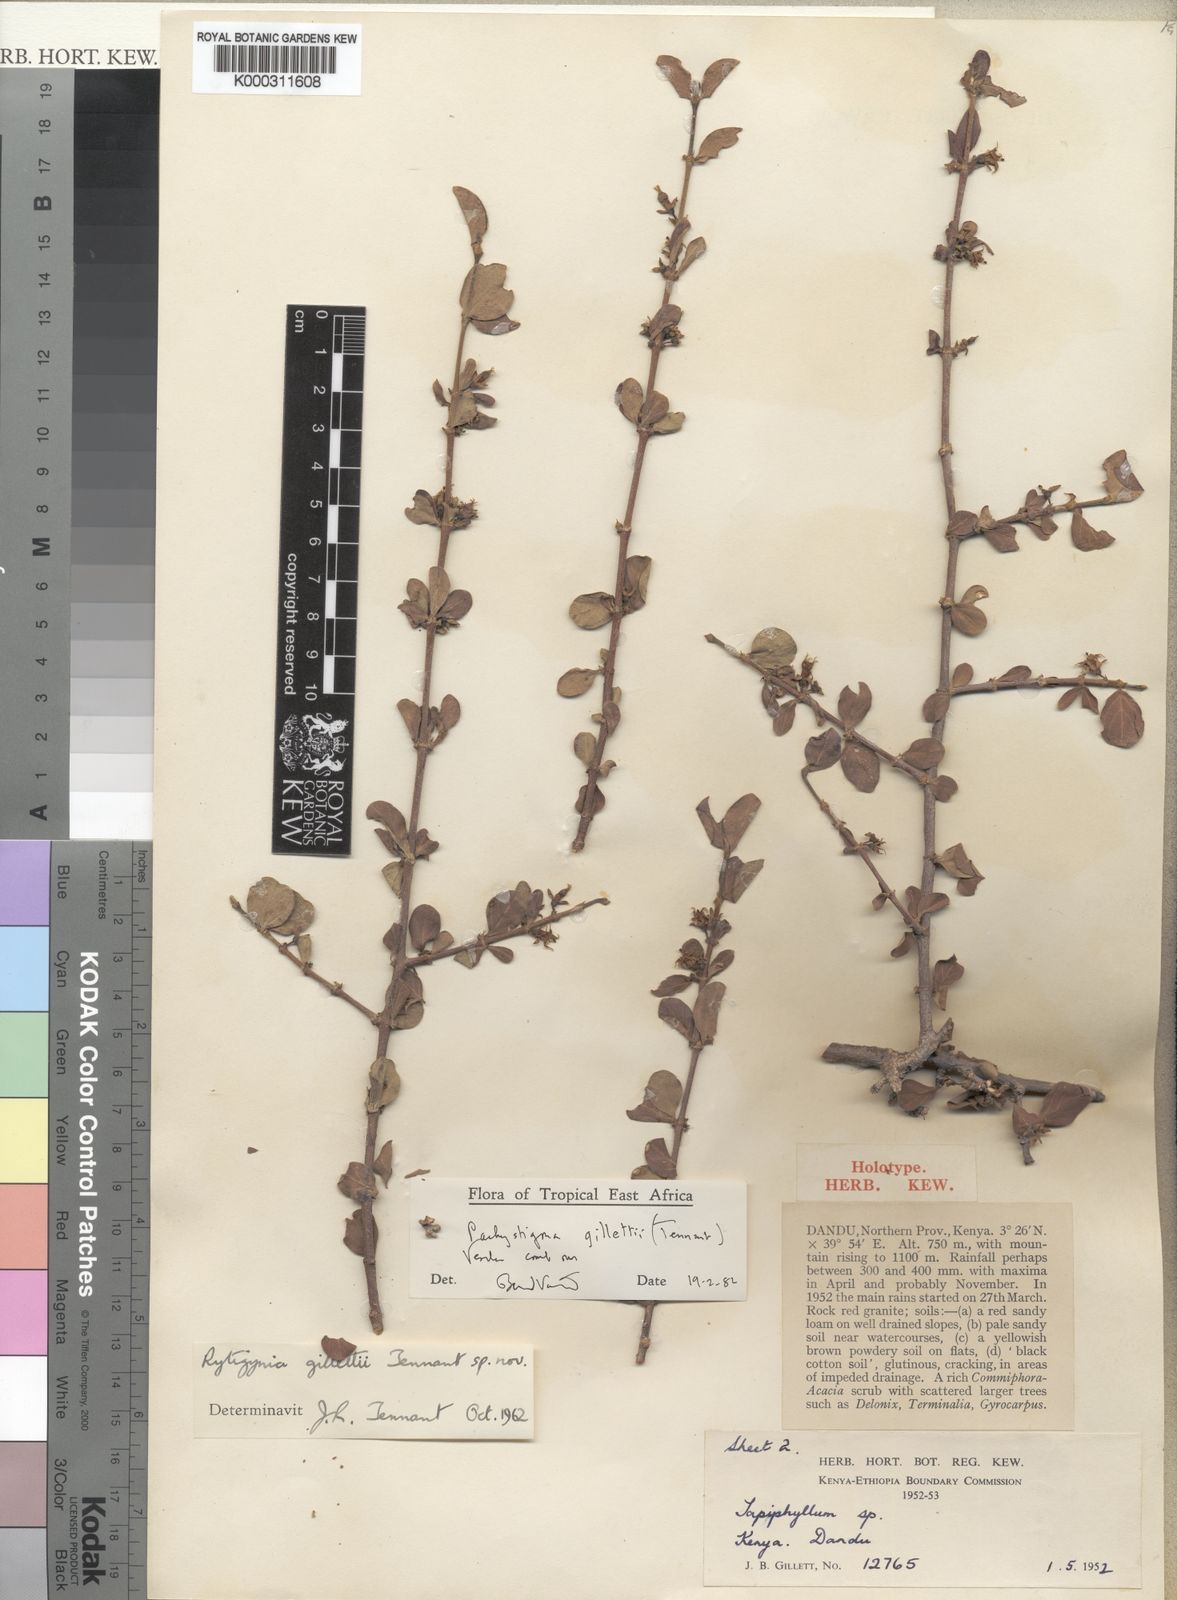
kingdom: Plantae
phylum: Tracheophyta
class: Magnoliopsida
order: Gentianales
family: Rubiaceae
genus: Vangueria
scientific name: Vangueria gillettii
